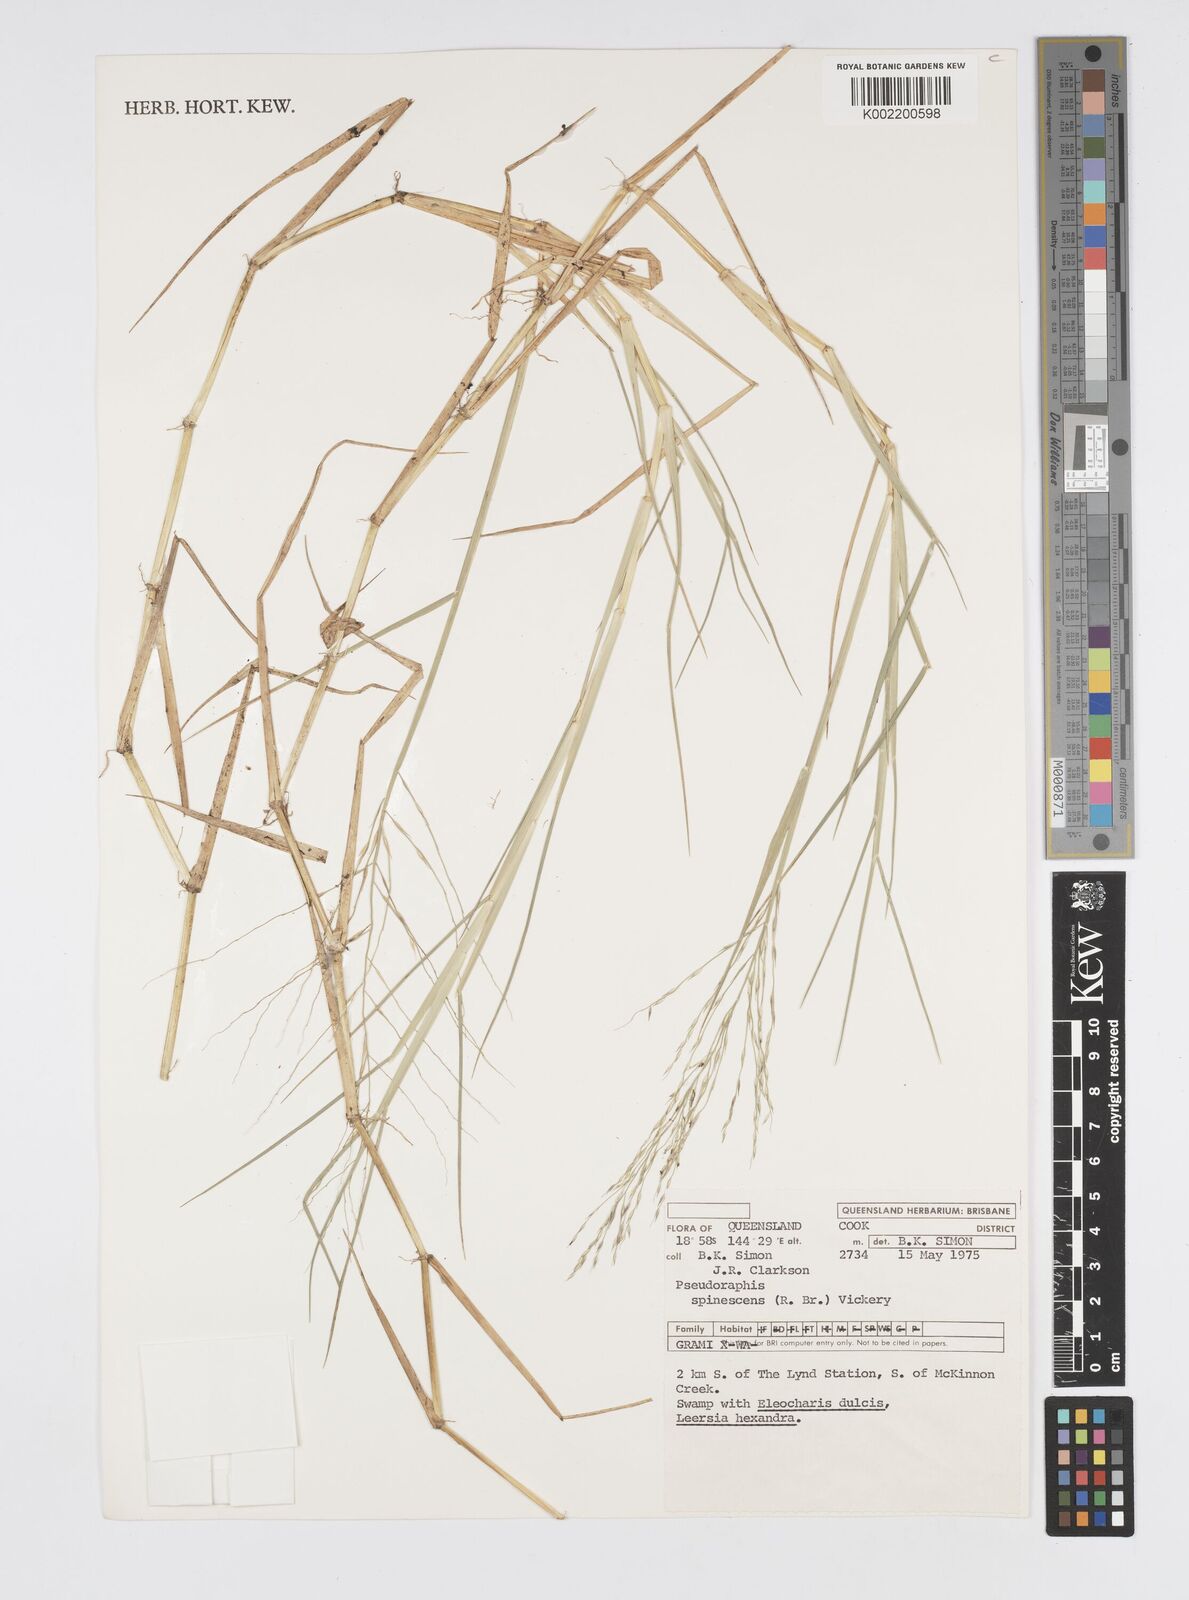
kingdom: Plantae
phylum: Tracheophyta
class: Liliopsida
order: Poales
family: Poaceae
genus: Pseudoraphis
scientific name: Pseudoraphis spinescens
